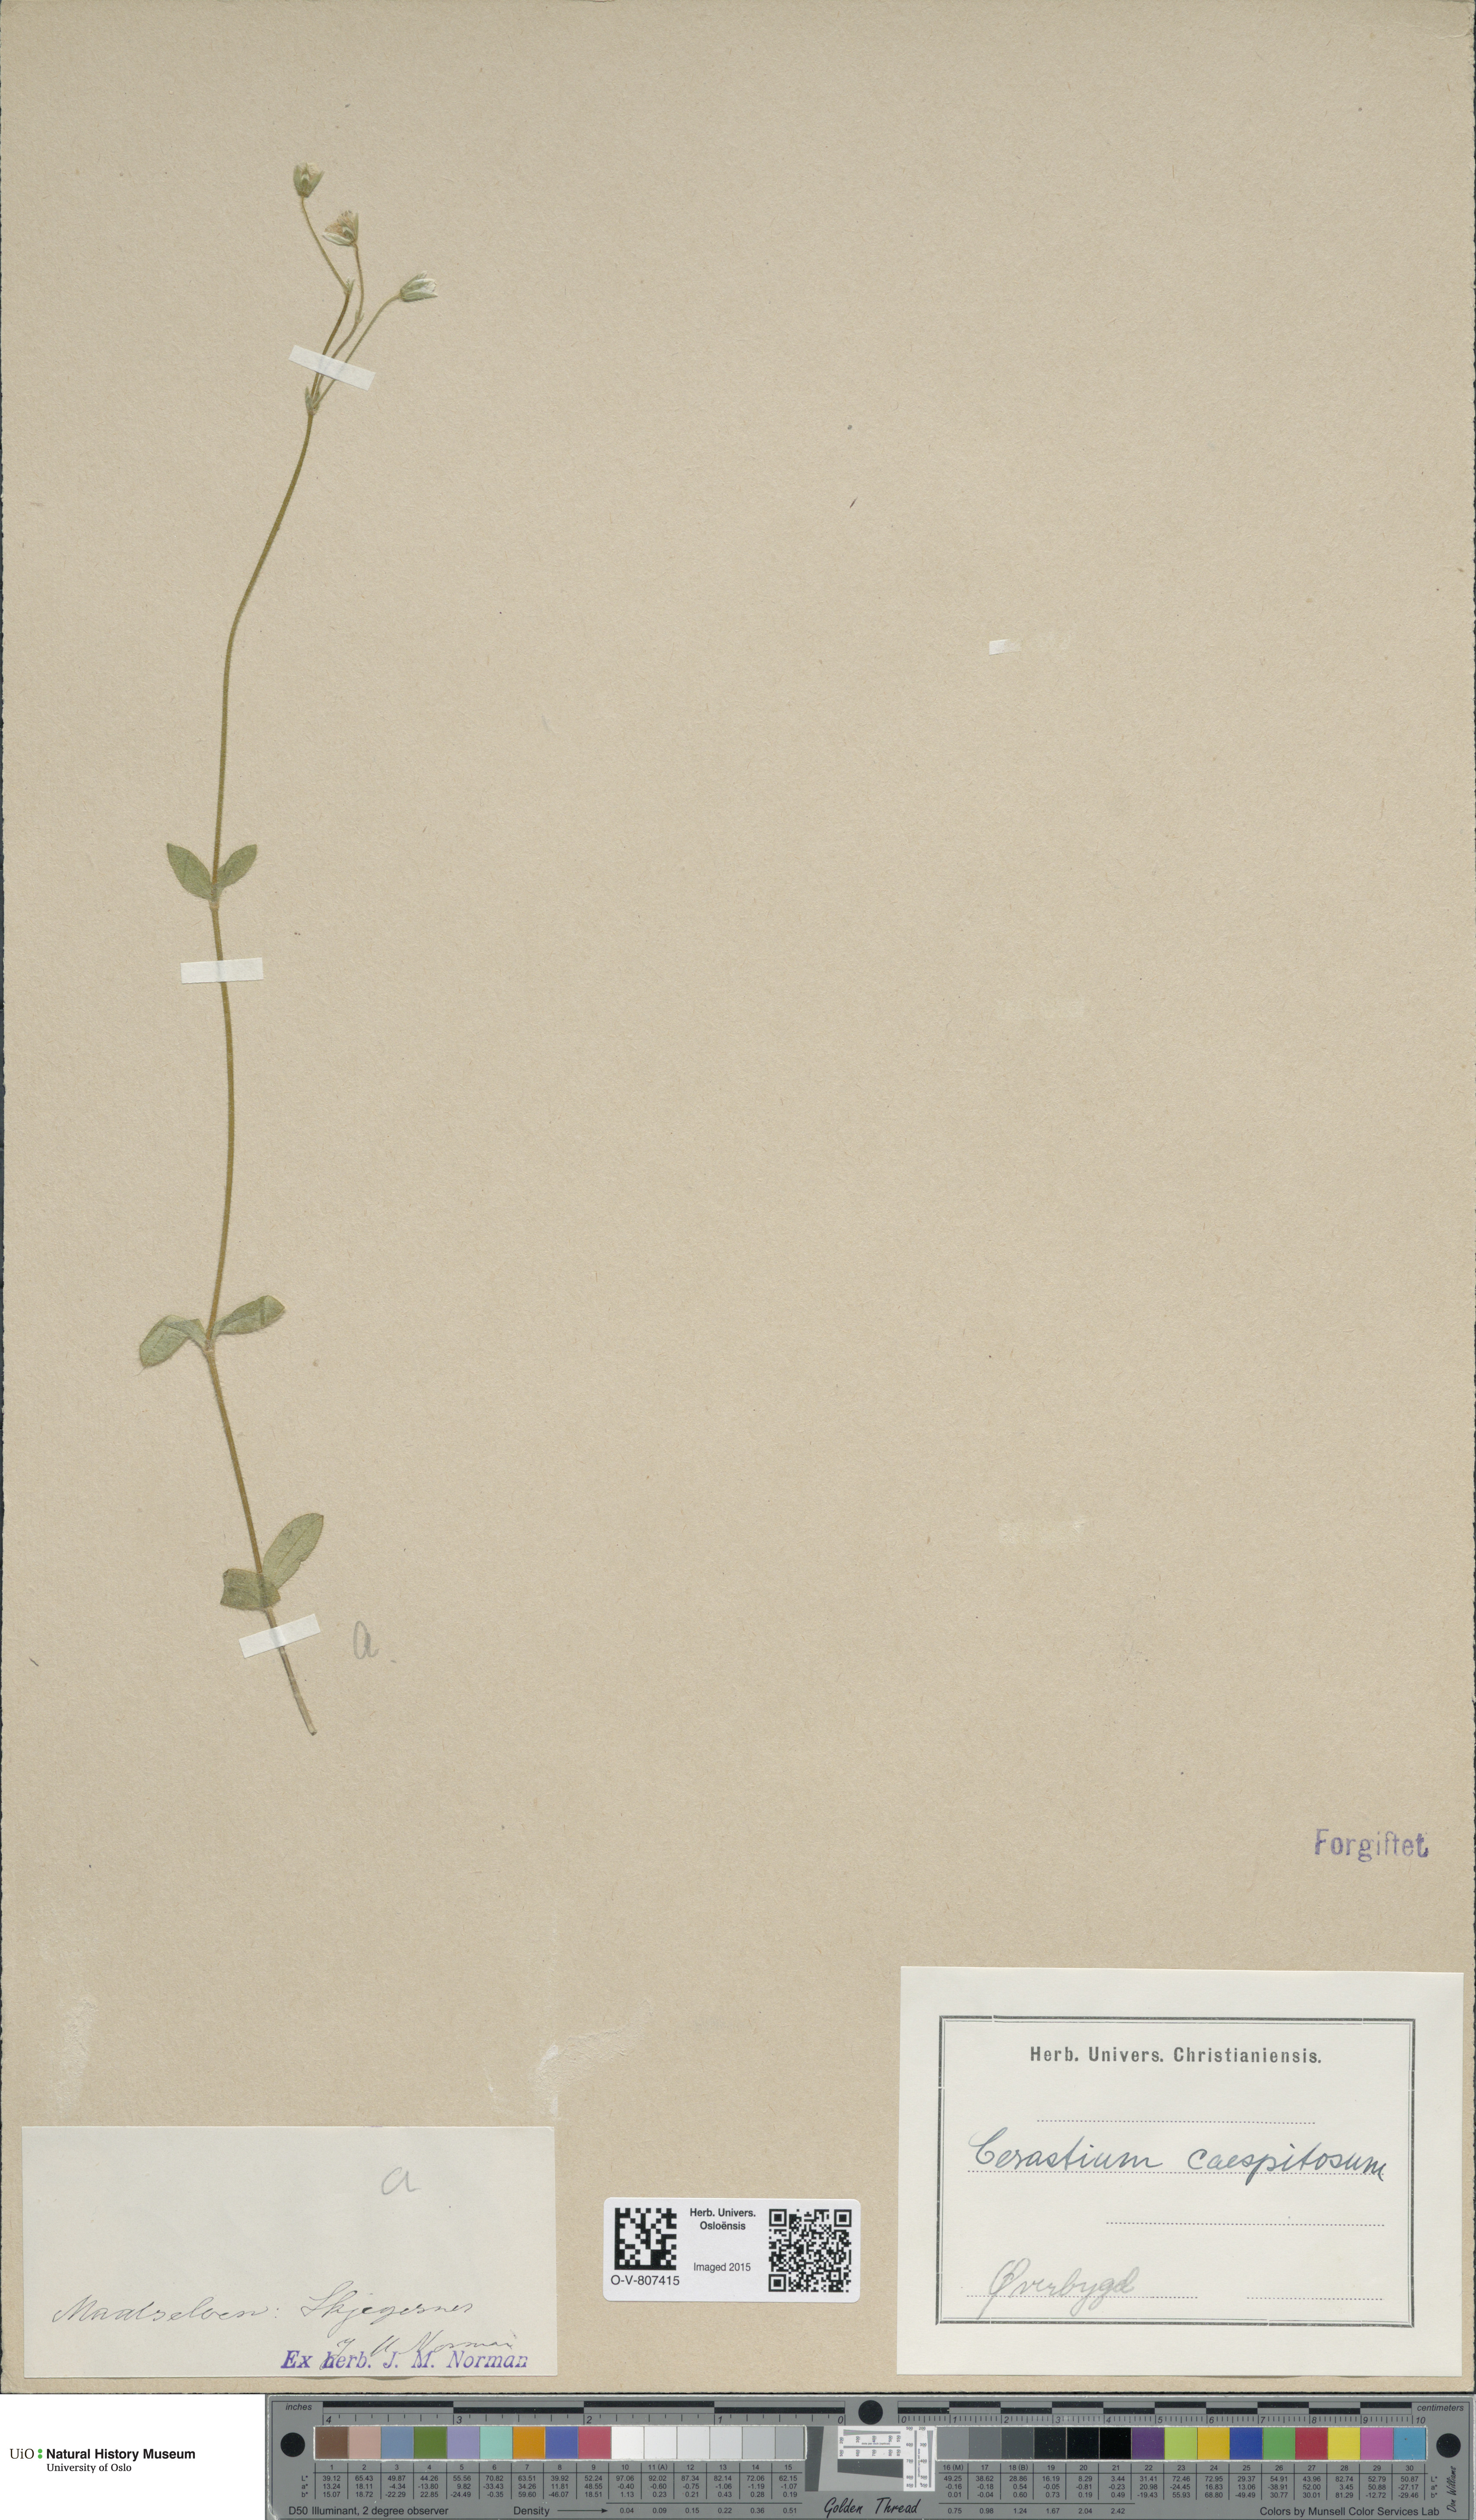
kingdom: Plantae
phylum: Tracheophyta
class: Magnoliopsida
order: Caryophyllales
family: Caryophyllaceae
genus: Cerastium
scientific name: Cerastium holosteoides
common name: Big chickweed
